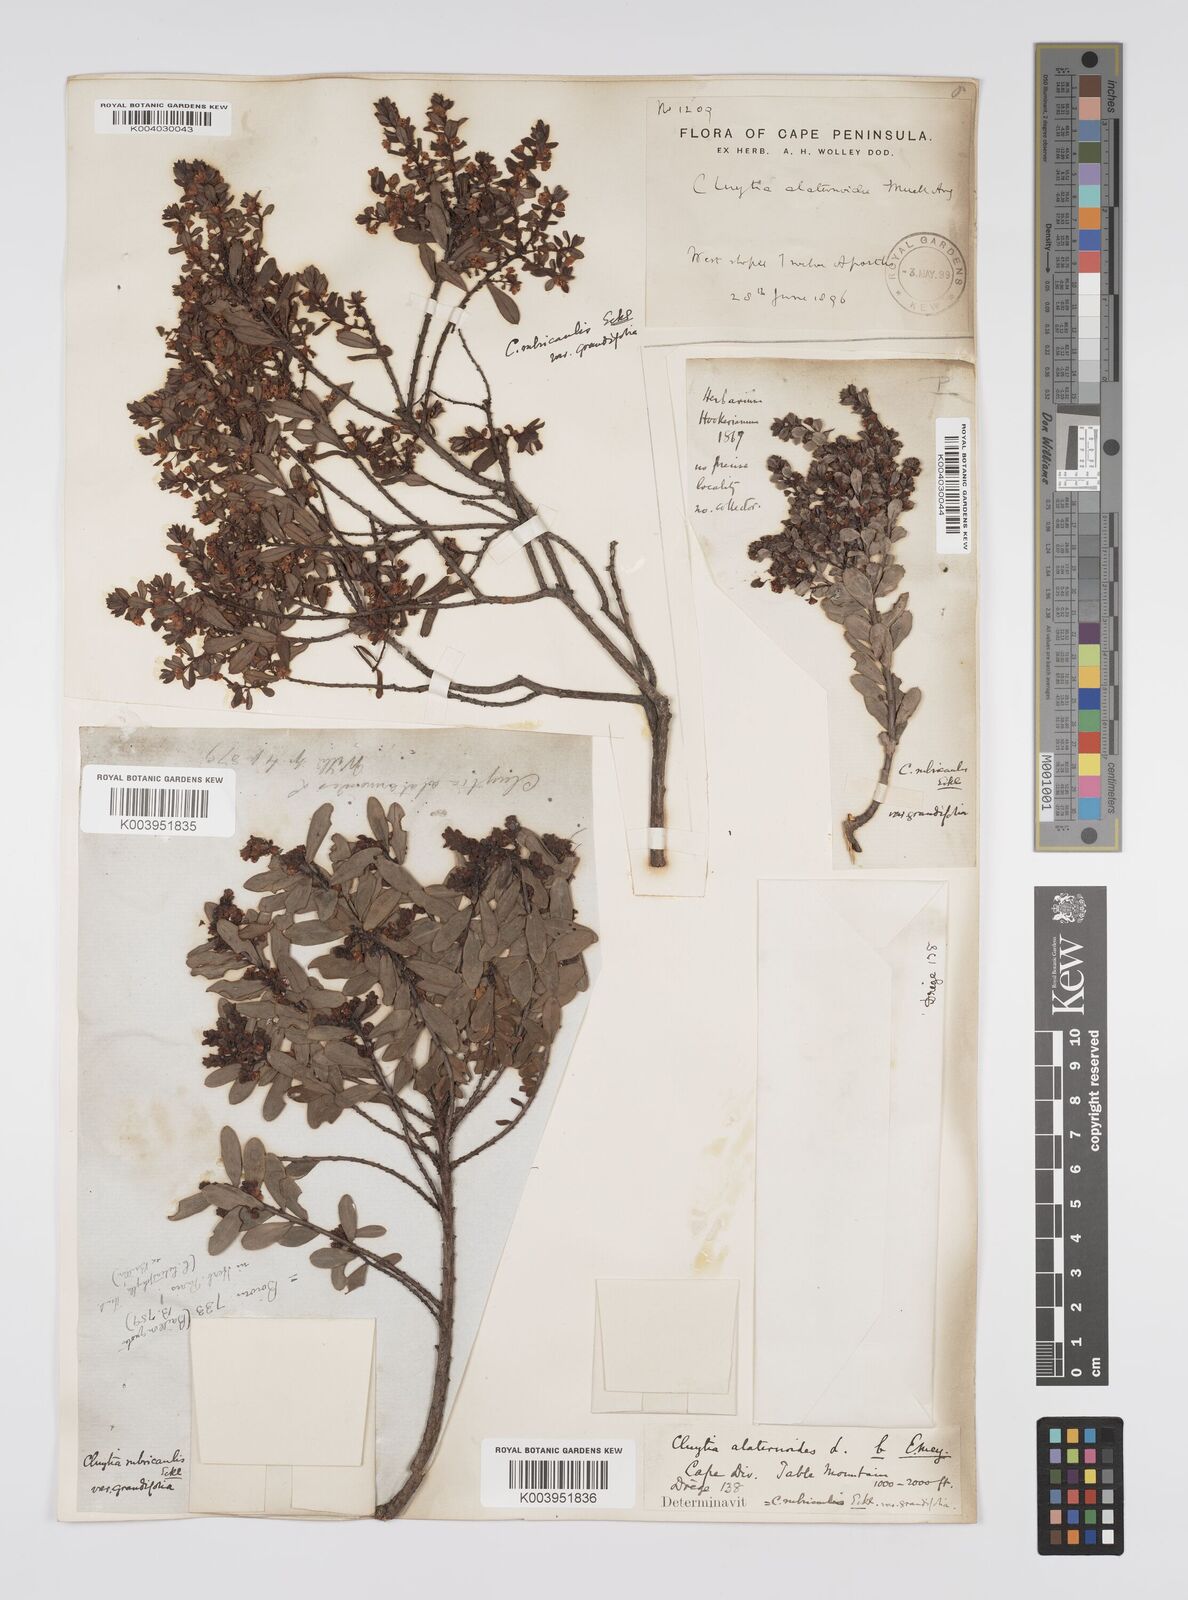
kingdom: Plantae
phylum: Tracheophyta
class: Magnoliopsida
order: Malpighiales
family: Peraceae
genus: Clutia
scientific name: Clutia rubricaulis
